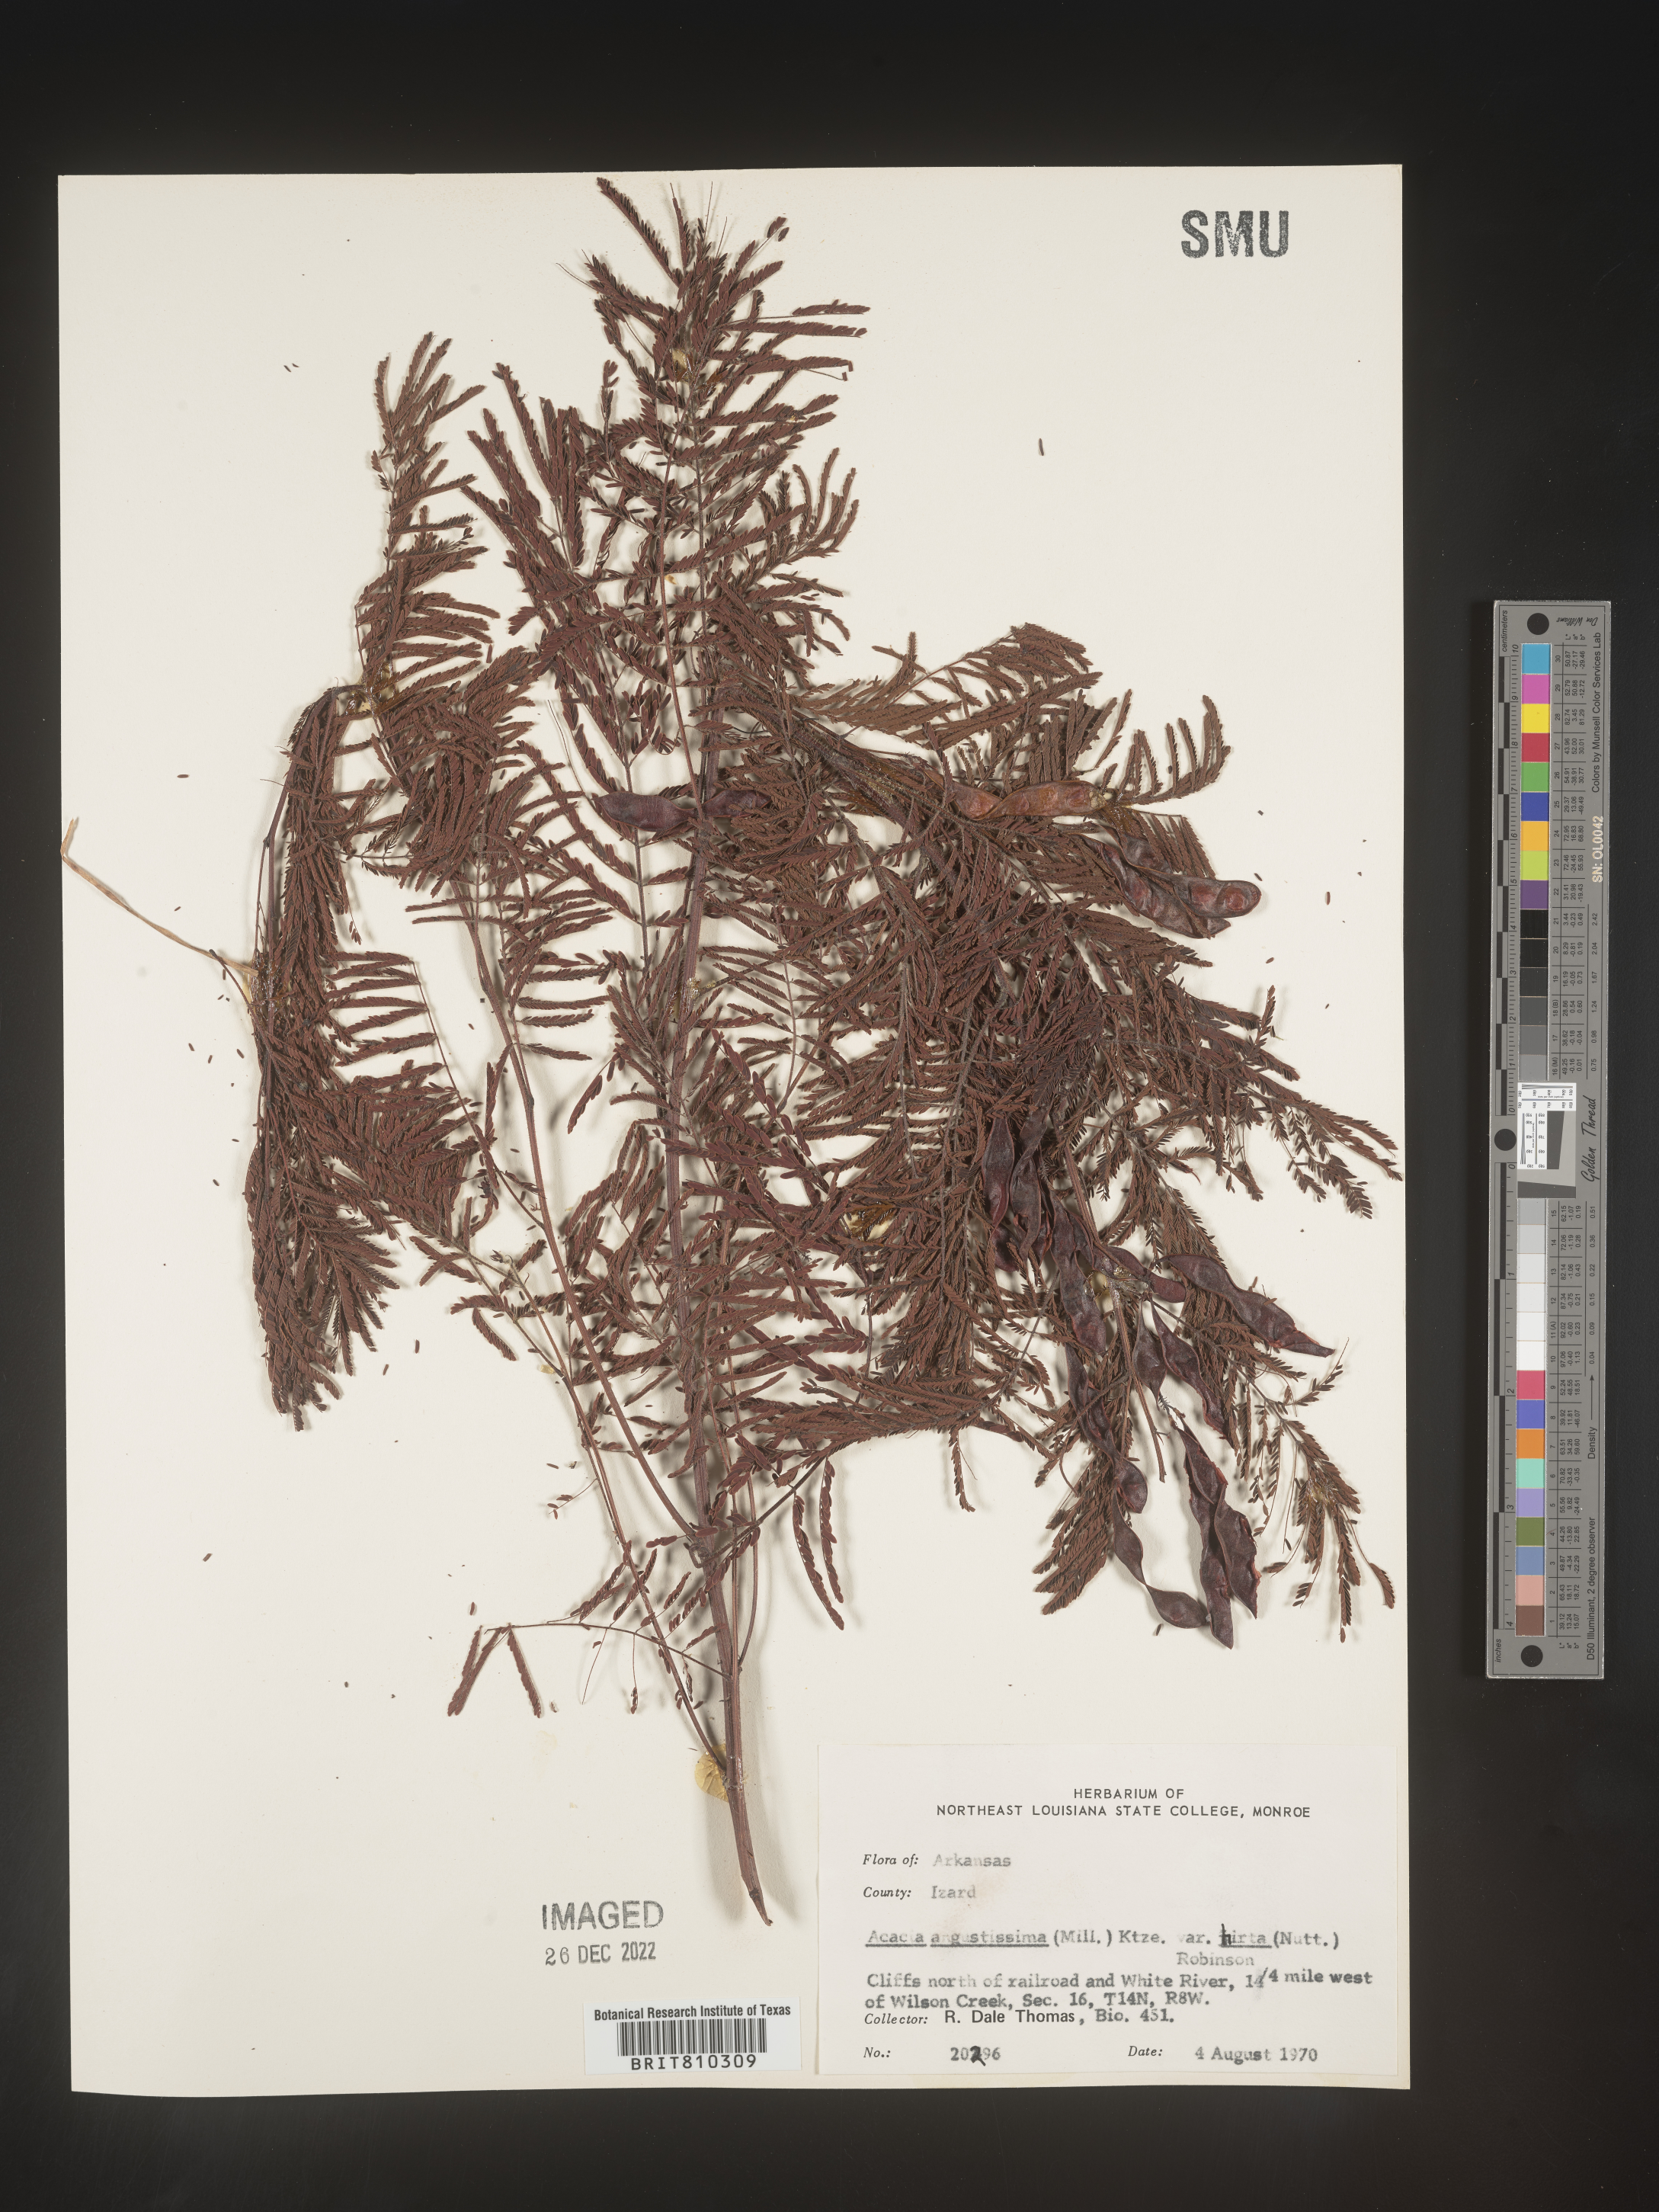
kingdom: Plantae
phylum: Tracheophyta
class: Magnoliopsida
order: Fabales
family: Fabaceae
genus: Acaciella
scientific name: Acaciella angustissima
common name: Prairie acacia
